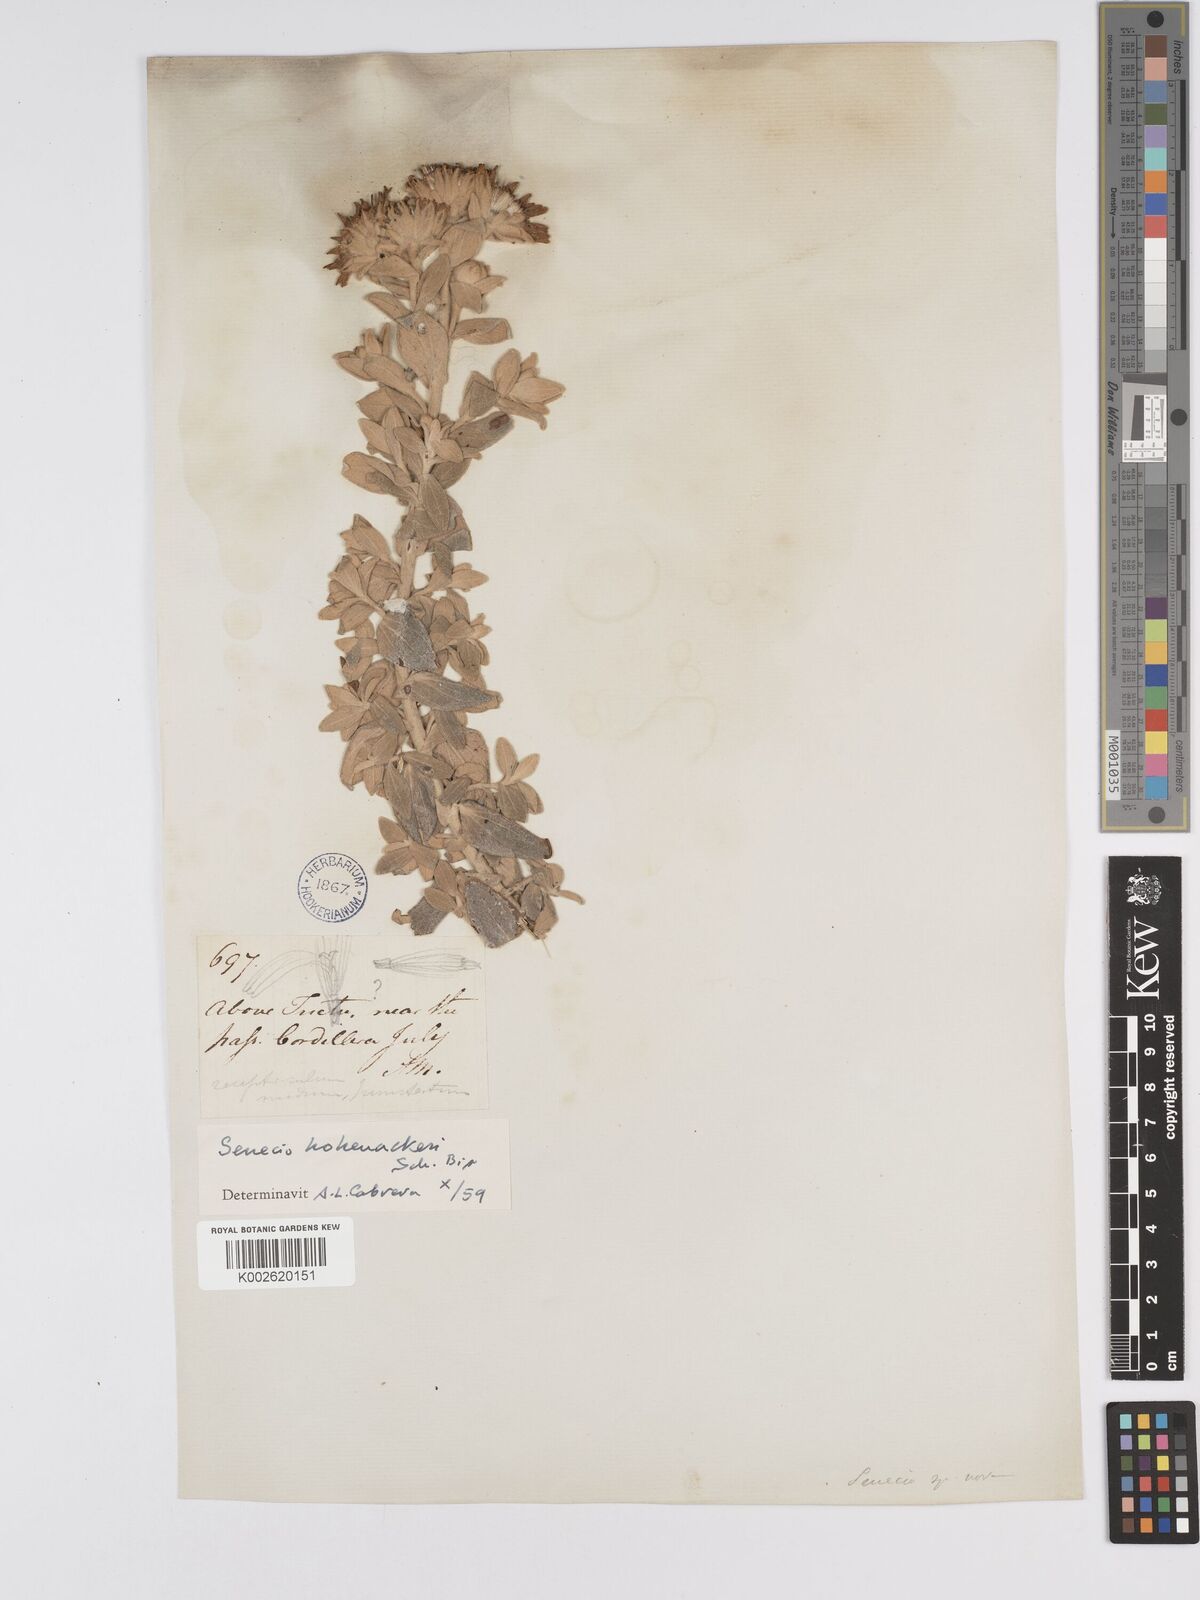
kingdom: Plantae
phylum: Tracheophyta
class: Magnoliopsida
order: Asterales
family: Asteraceae
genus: Senecio
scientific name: Senecio hohenackeri
